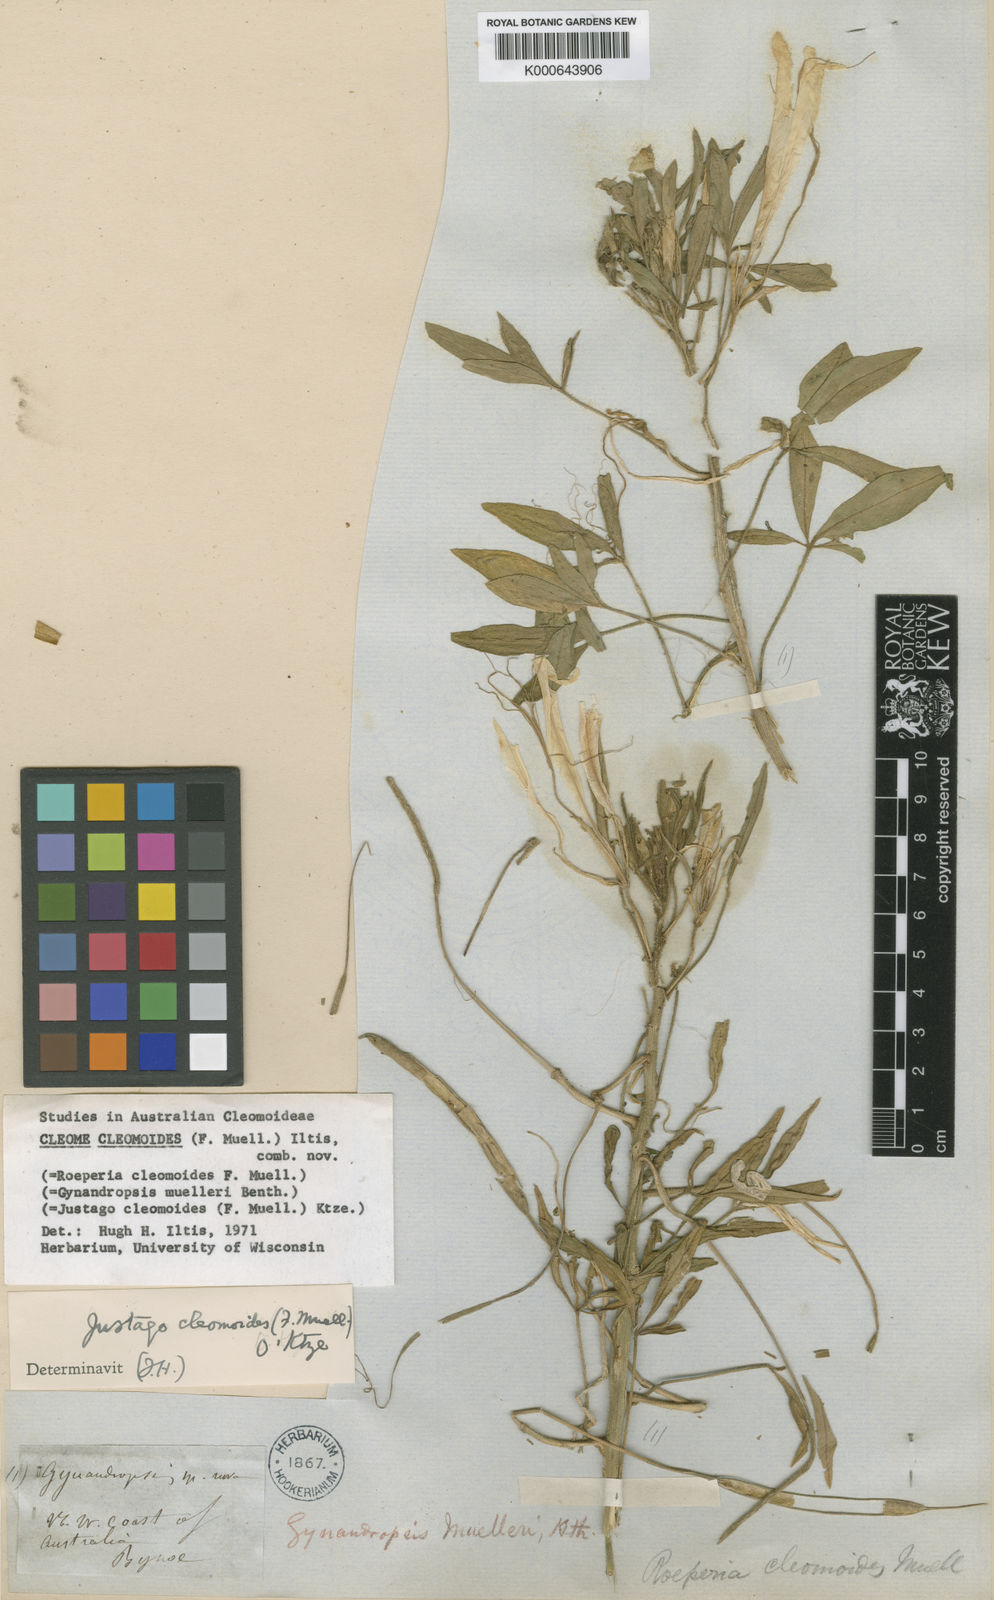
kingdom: Plantae
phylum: Tracheophyta
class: Magnoliopsida
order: Brassicales
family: Cleomaceae
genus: Arivela
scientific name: Arivela cleomoides
